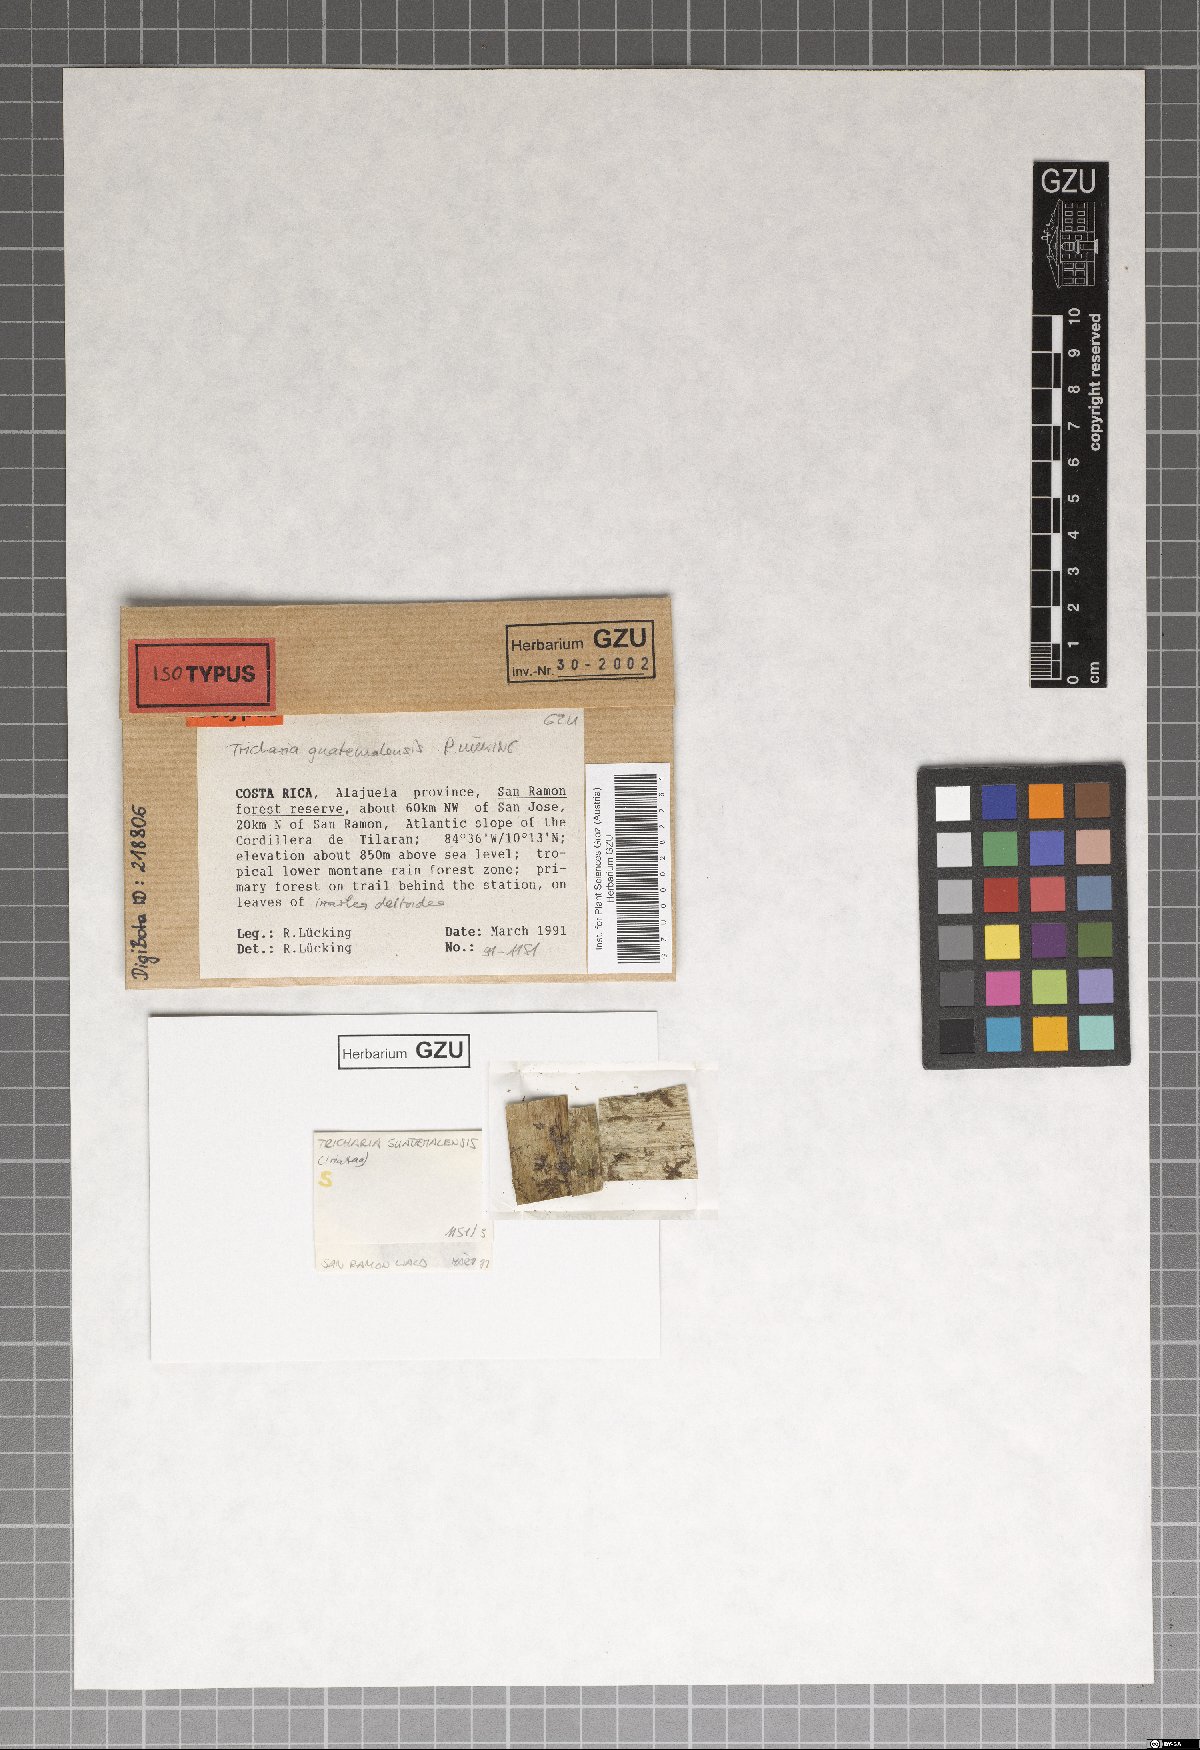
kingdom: Fungi
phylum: Ascomycota
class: Lecanoromycetes
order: Ostropales
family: Gomphillaceae
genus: Aderkomyces
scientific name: Aderkomyces guatemalensis
